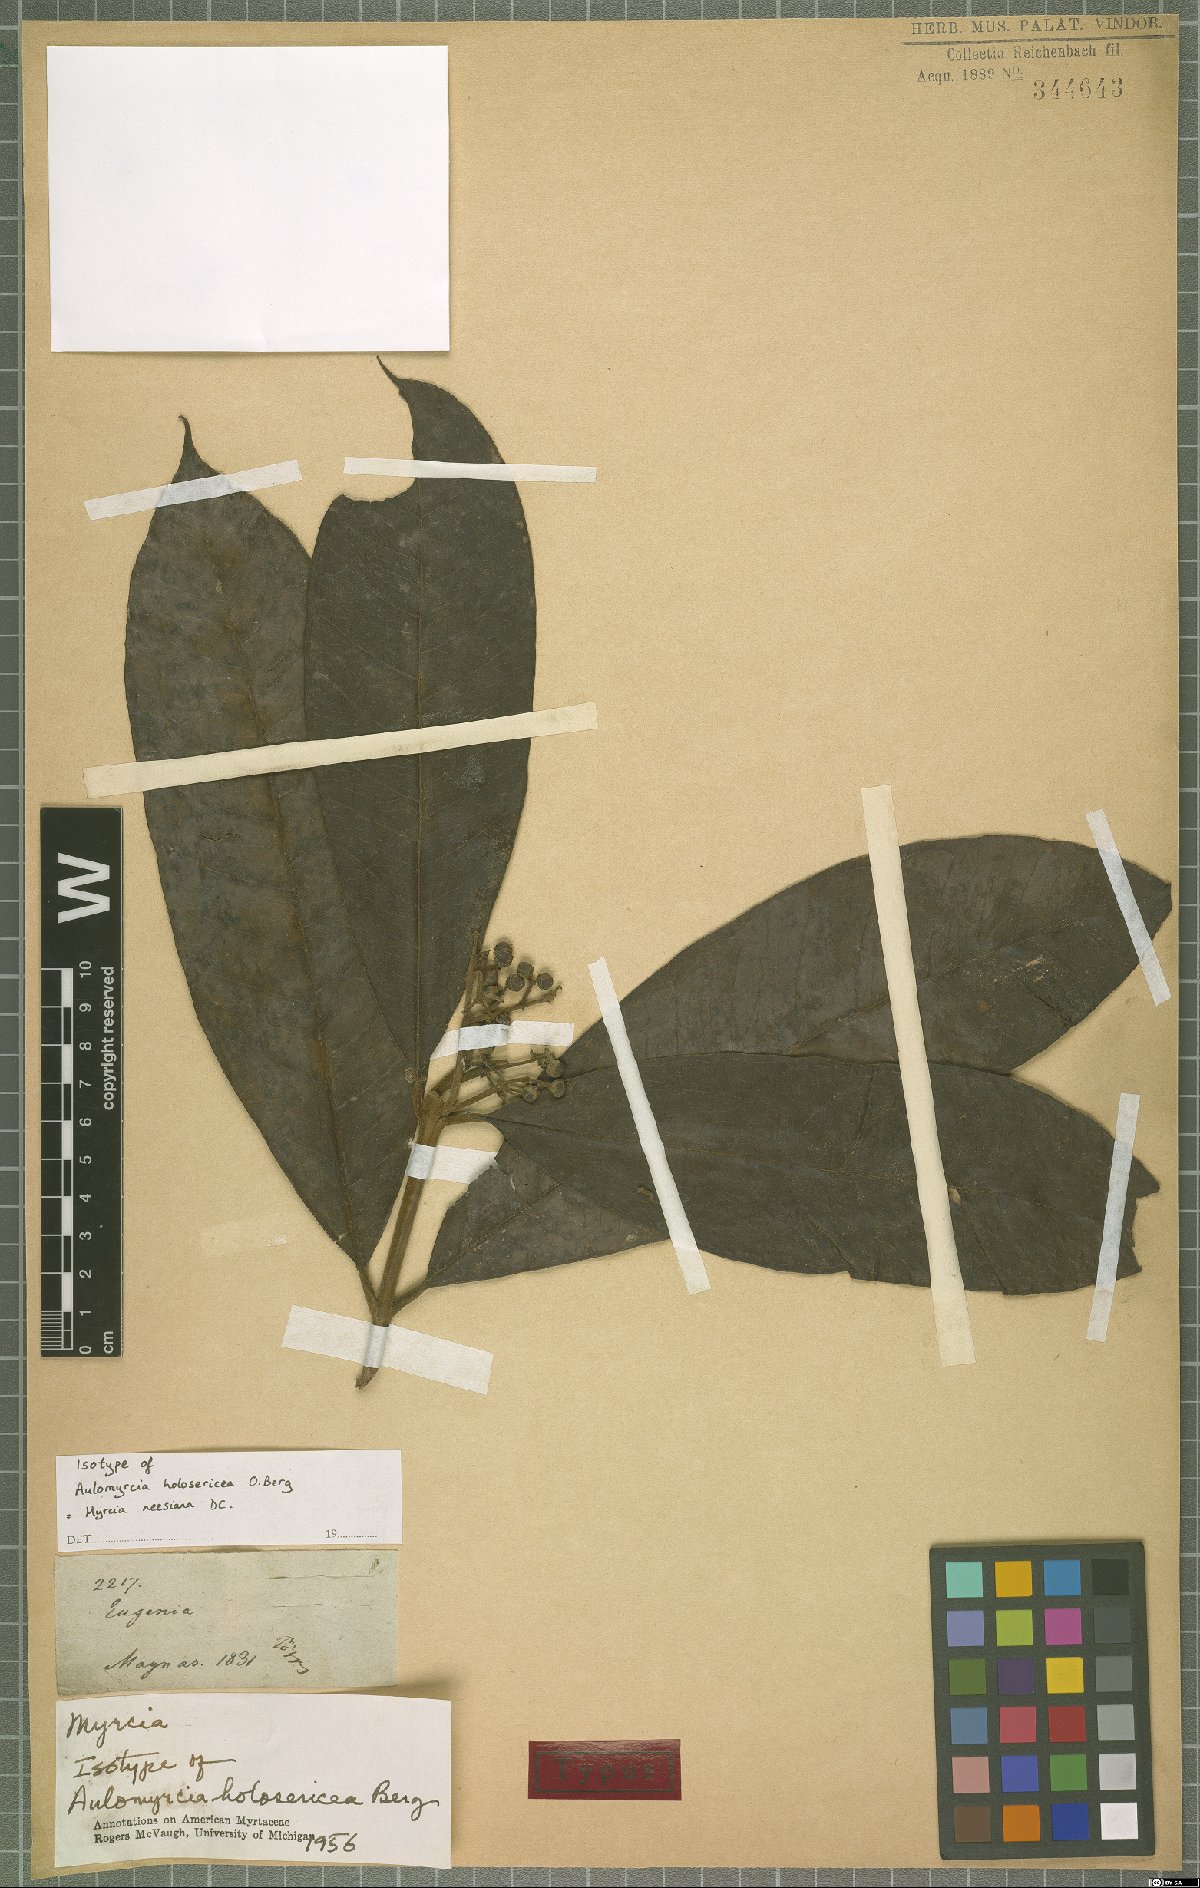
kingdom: Plantae
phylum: Tracheophyta
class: Magnoliopsida
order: Myrtales
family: Myrtaceae
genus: Myrcia
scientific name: Myrcia neesiana
